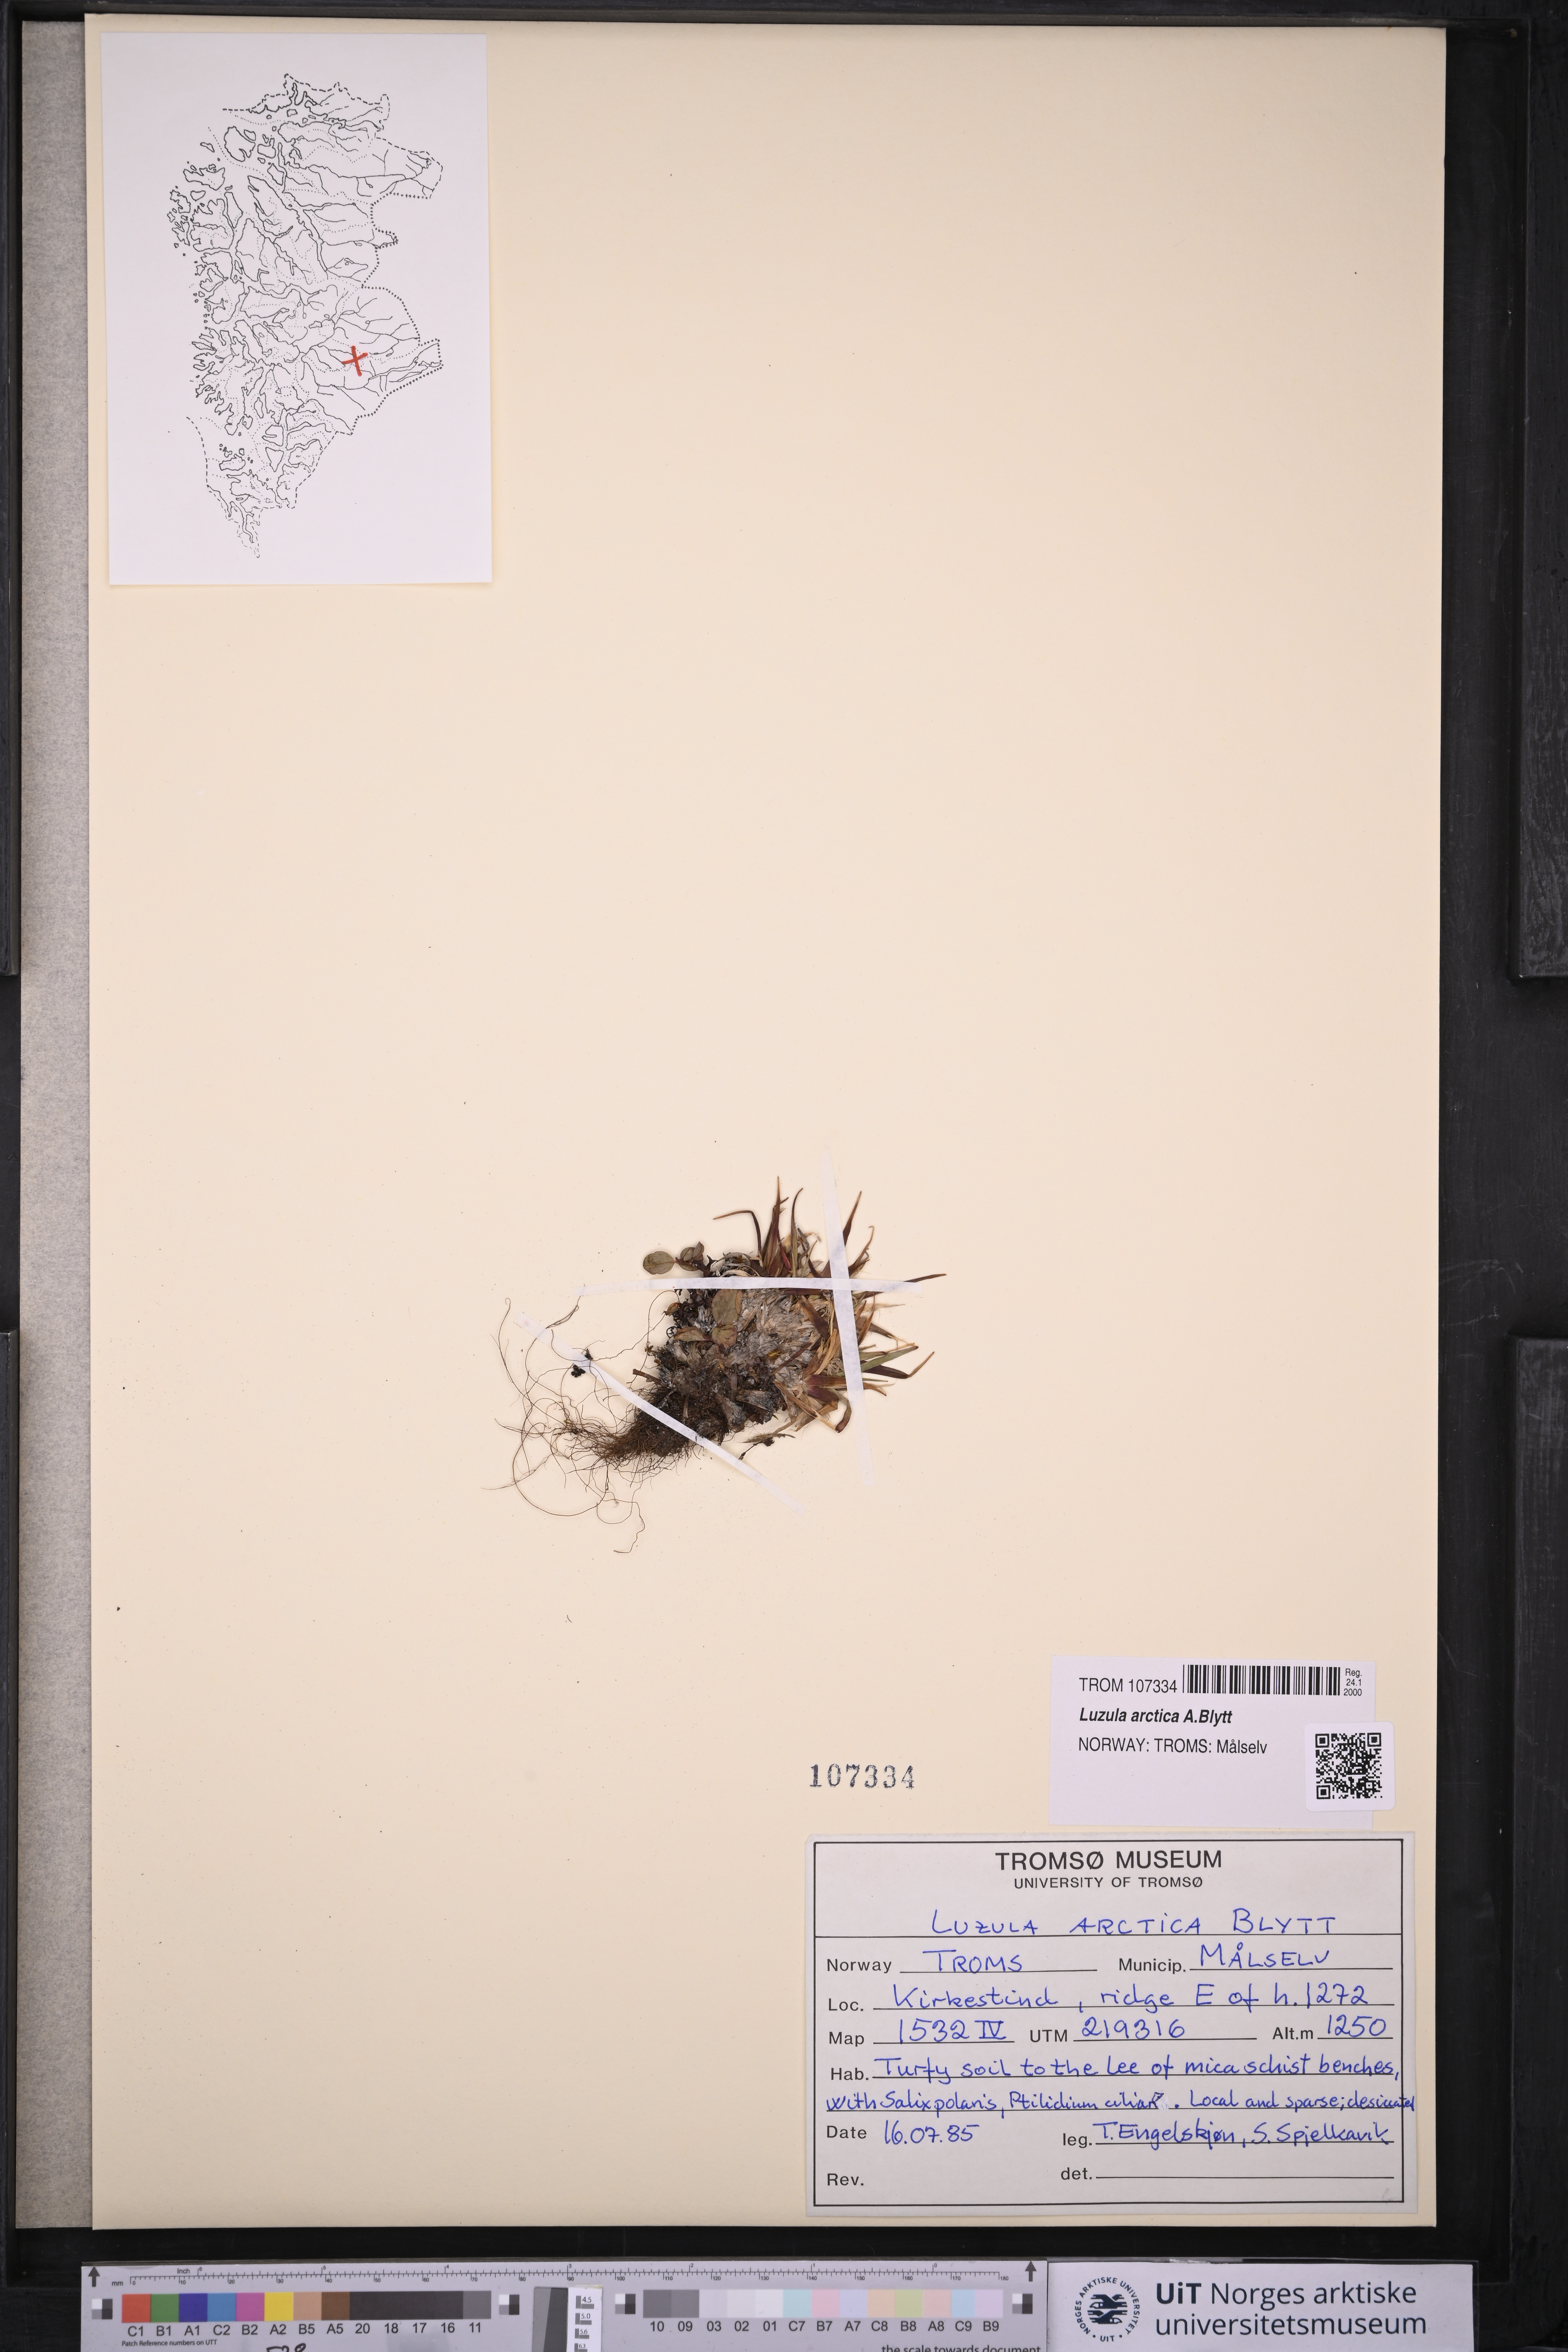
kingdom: Plantae
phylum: Tracheophyta
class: Liliopsida
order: Poales
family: Juncaceae
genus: Luzula
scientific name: Luzula nivalis
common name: Arctic woodrush
